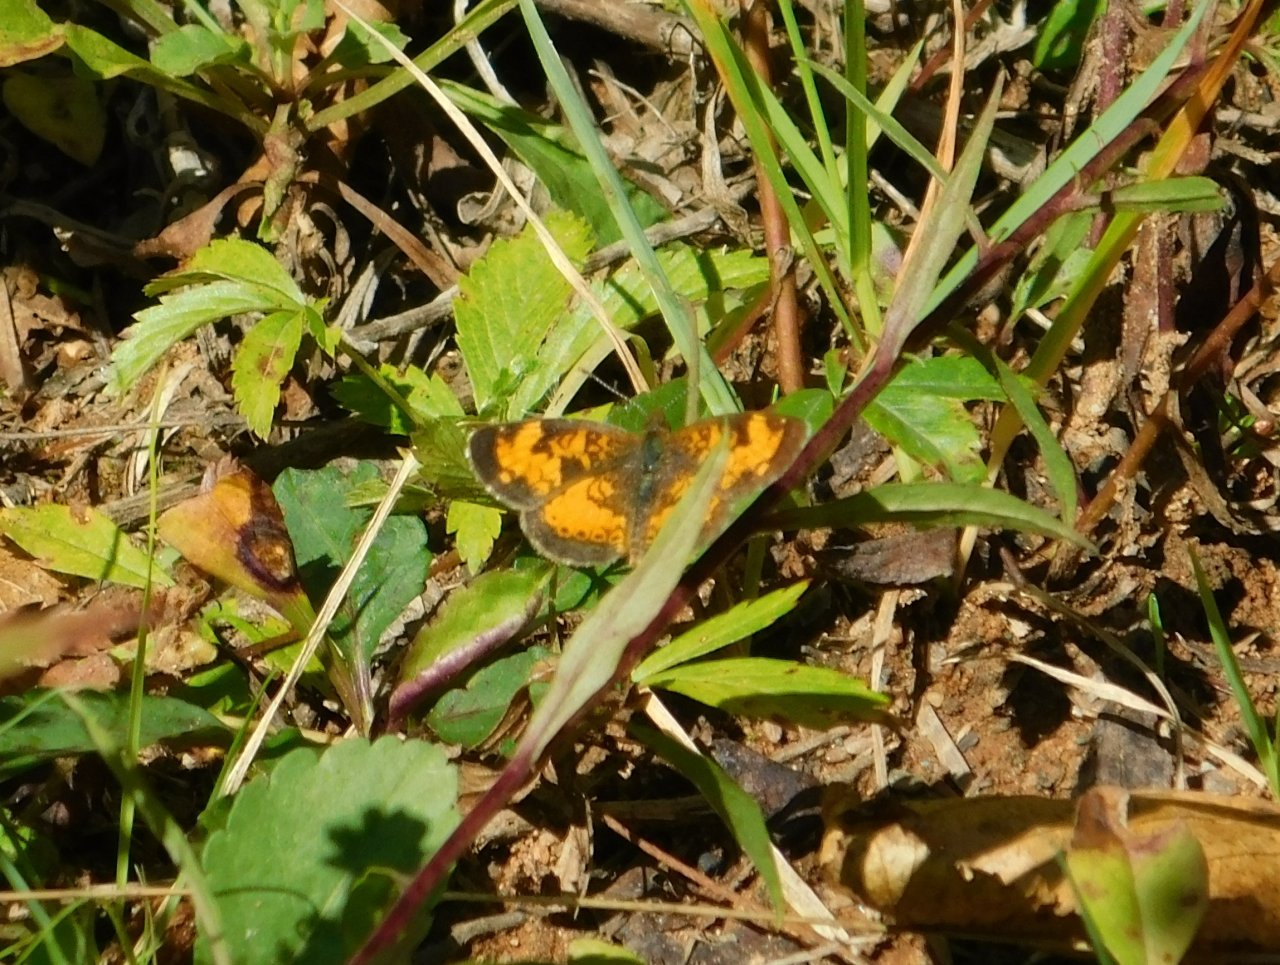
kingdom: Animalia
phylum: Arthropoda
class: Insecta
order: Lepidoptera
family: Nymphalidae
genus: Phyciodes
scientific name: Phyciodes tharos
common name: Northern Crescent
